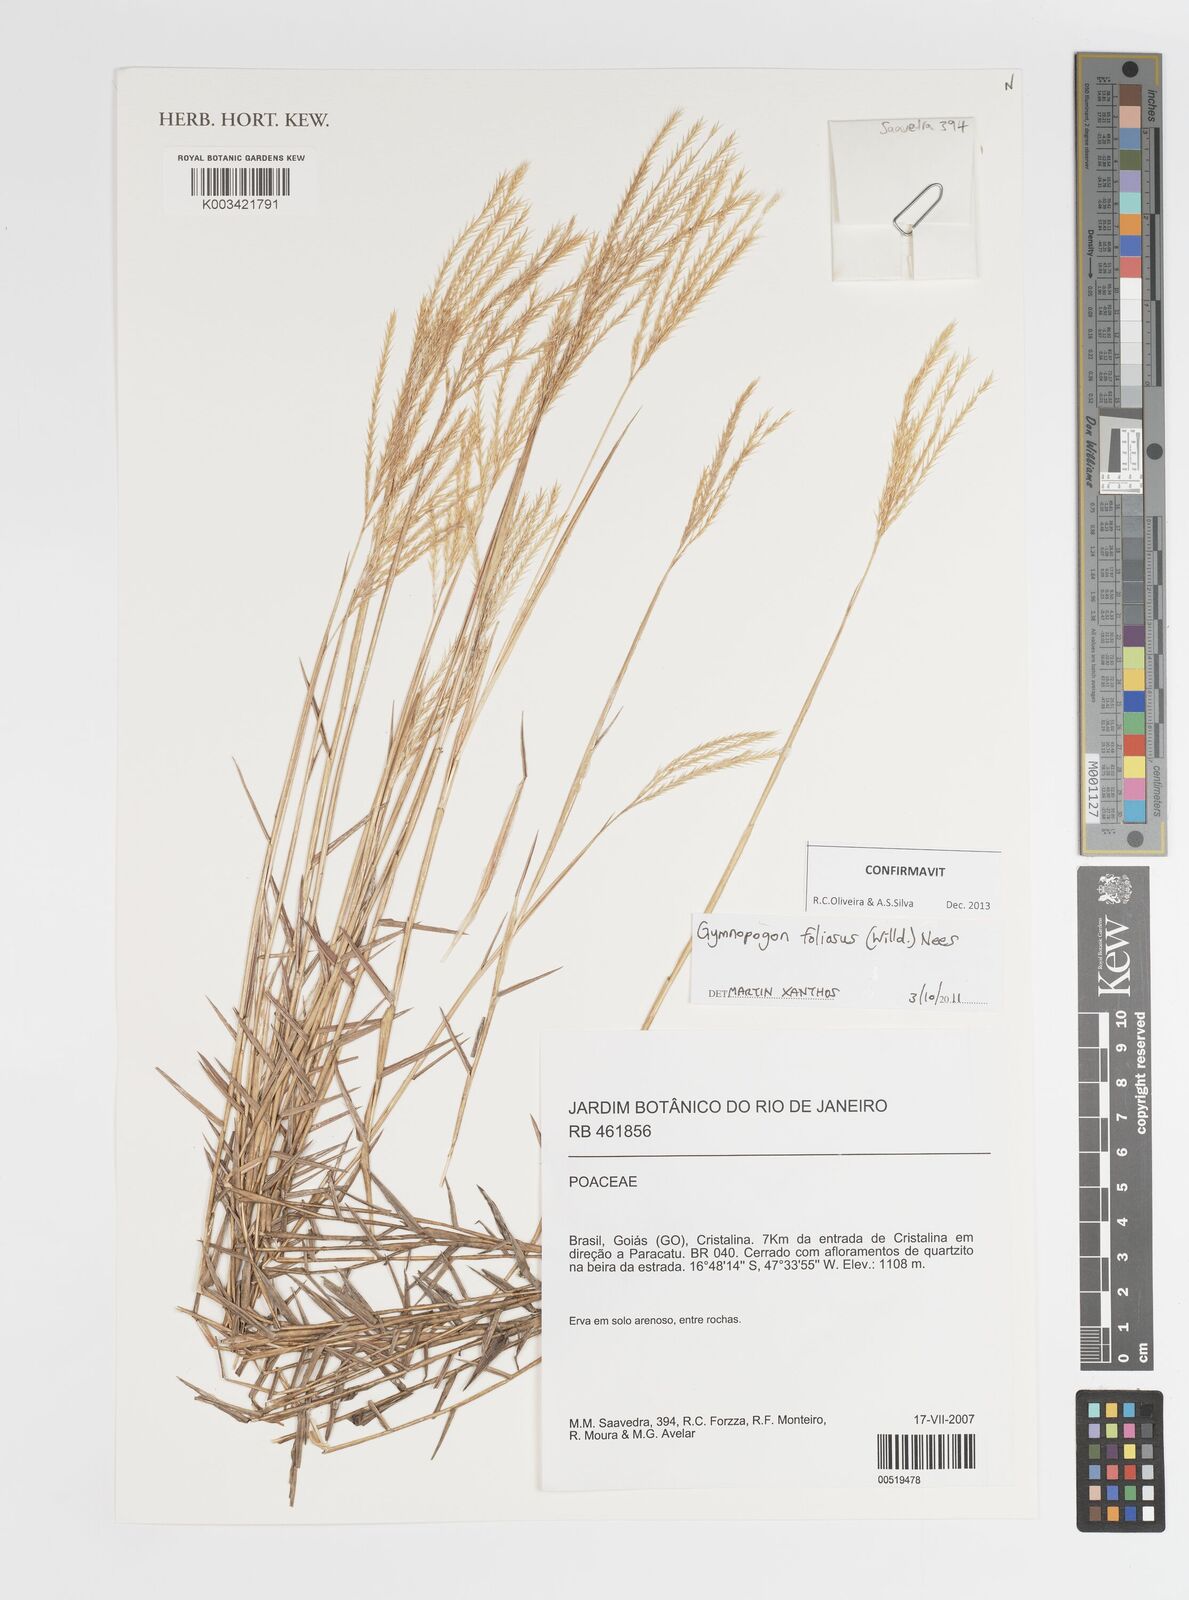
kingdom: Plantae
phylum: Tracheophyta
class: Liliopsida
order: Poales
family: Poaceae
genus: Gymnopogon
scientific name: Gymnopogon foliosus
